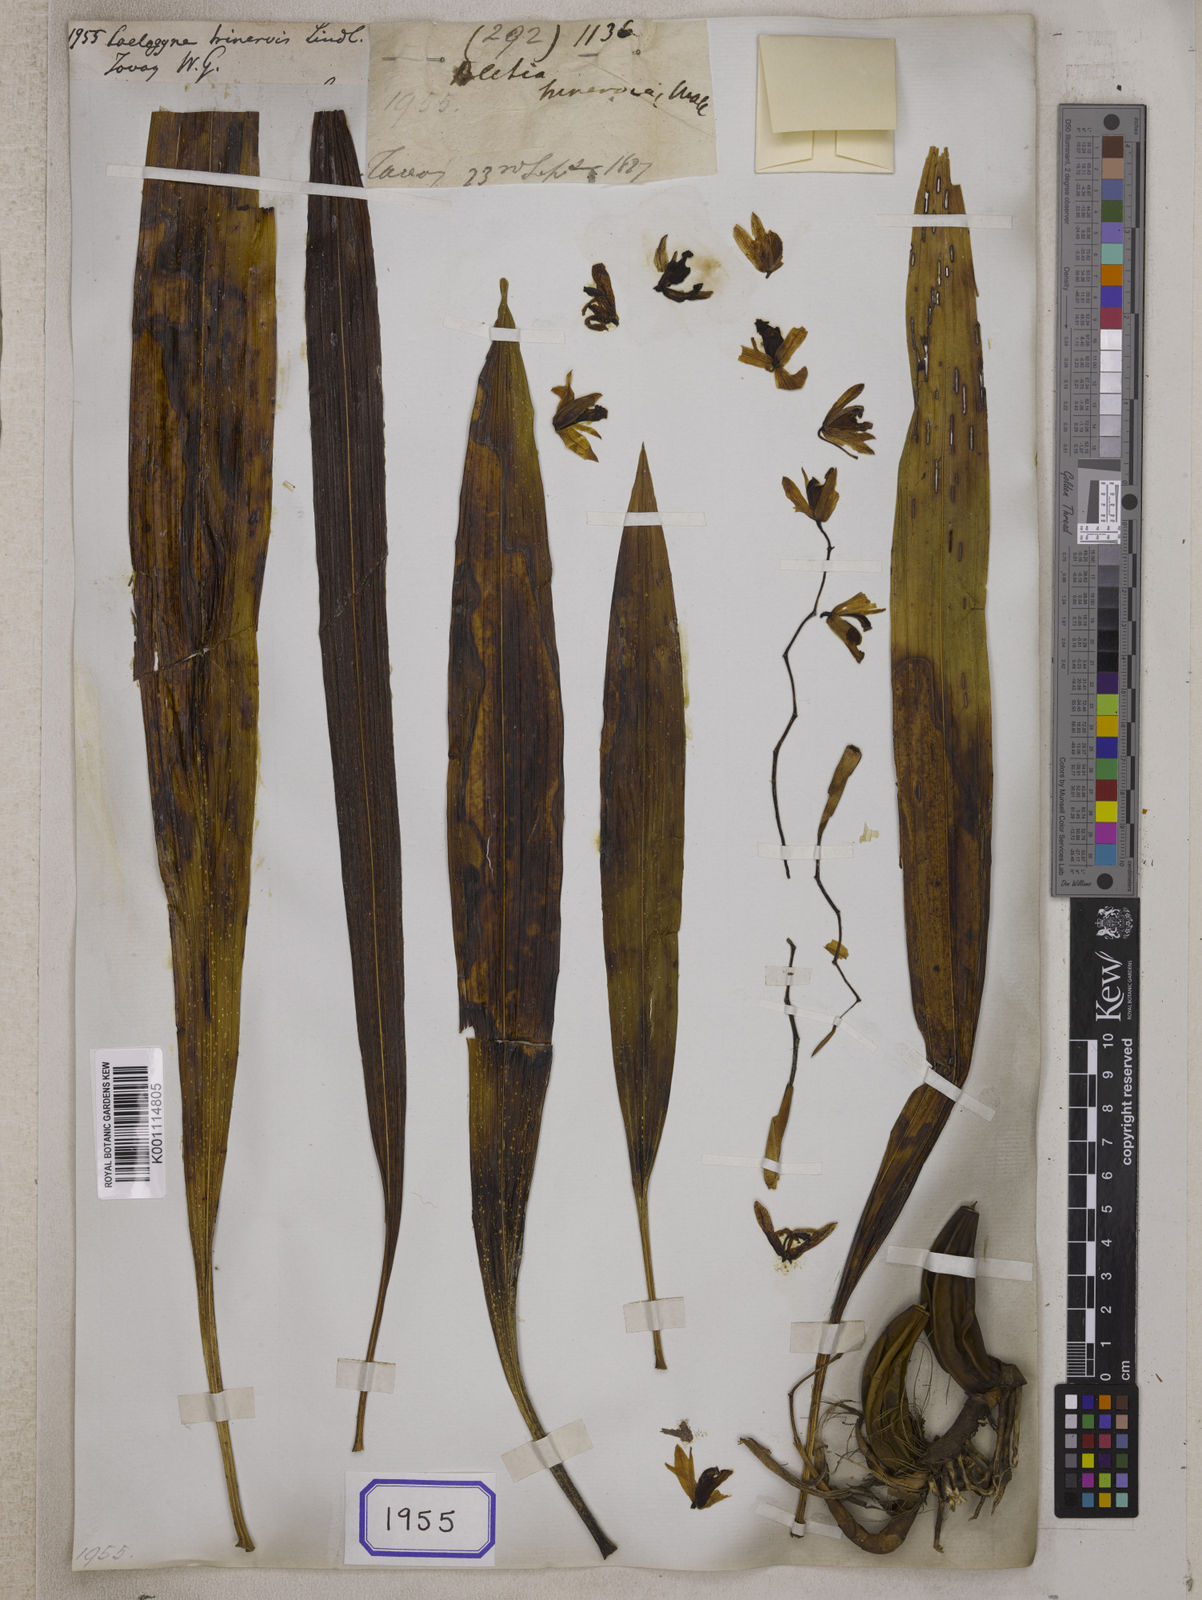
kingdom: Plantae
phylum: Tracheophyta
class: Liliopsida
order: Asparagales
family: Orchidaceae
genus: Coelogyne
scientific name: Coelogyne trinervis
